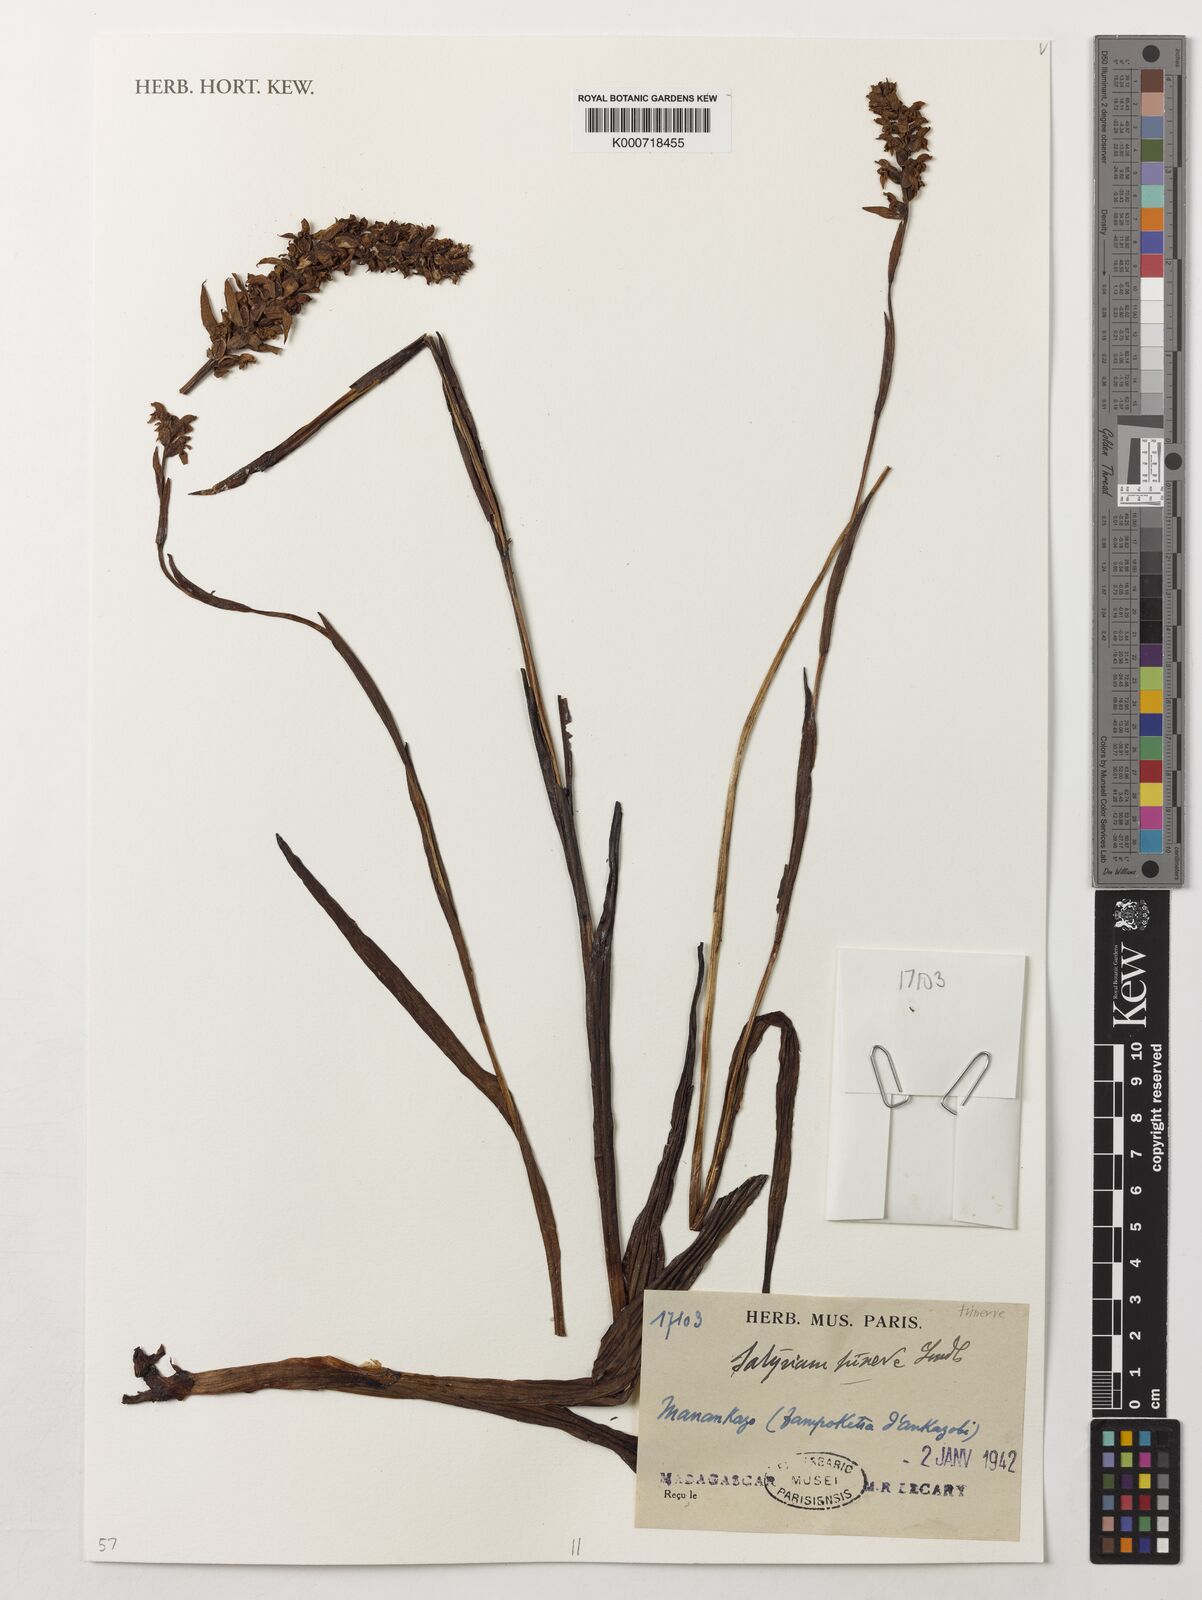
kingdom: Plantae
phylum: Tracheophyta
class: Liliopsida
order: Asparagales
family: Orchidaceae
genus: Satyrium
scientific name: Satyrium trinerve
